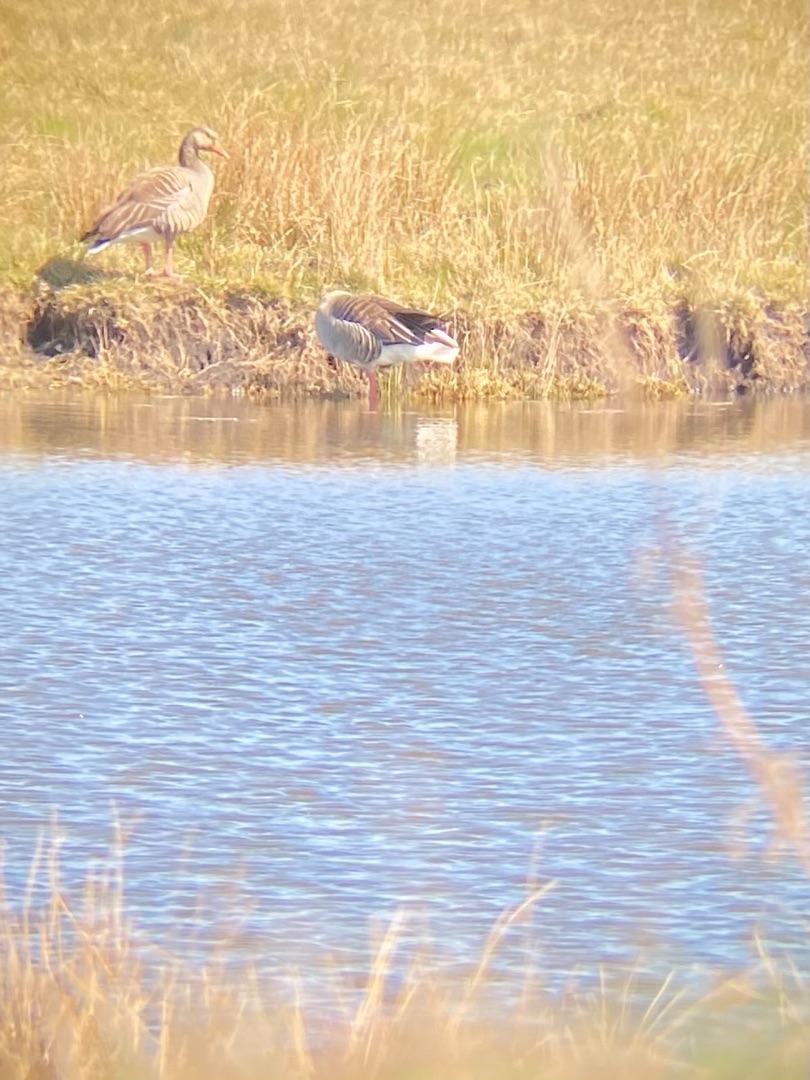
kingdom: Animalia
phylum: Chordata
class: Aves
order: Anseriformes
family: Anatidae
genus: Anser
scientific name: Anser anser
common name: Grågås
